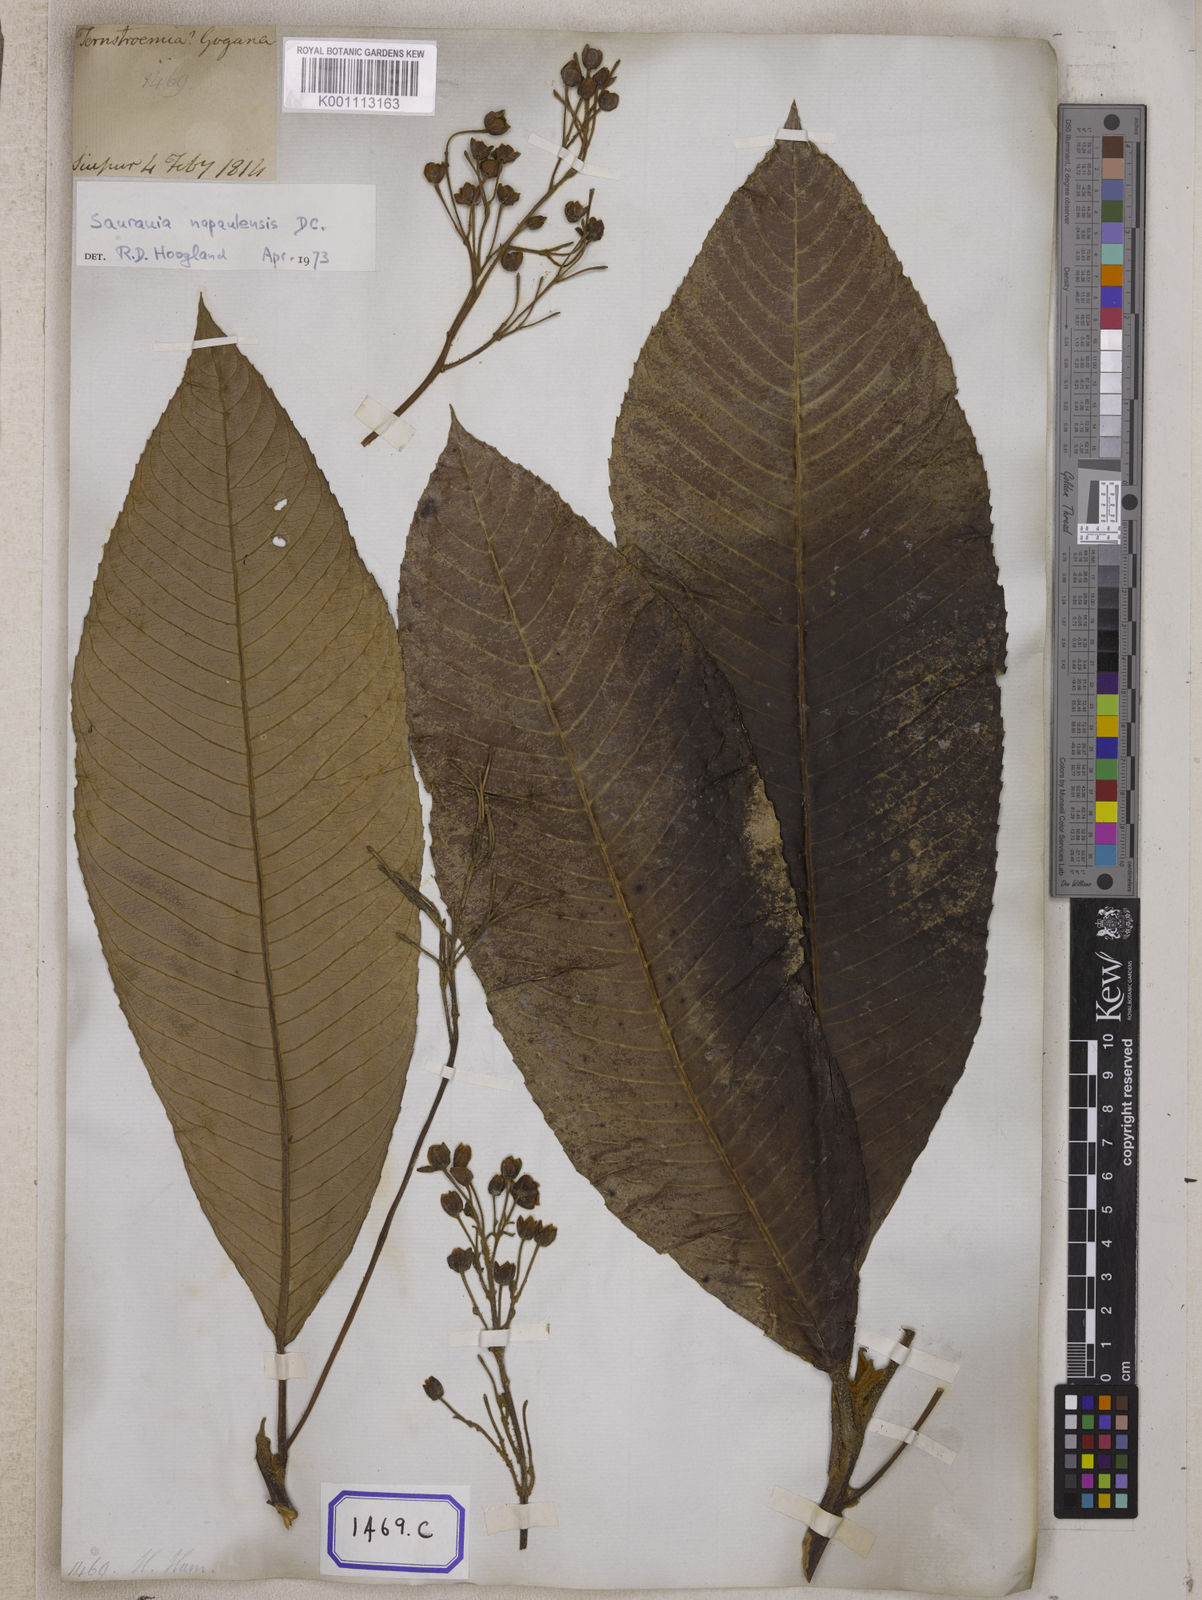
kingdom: Plantae
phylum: Tracheophyta
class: Magnoliopsida
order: Ericales
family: Actinidiaceae
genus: Saurauia
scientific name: Saurauia
